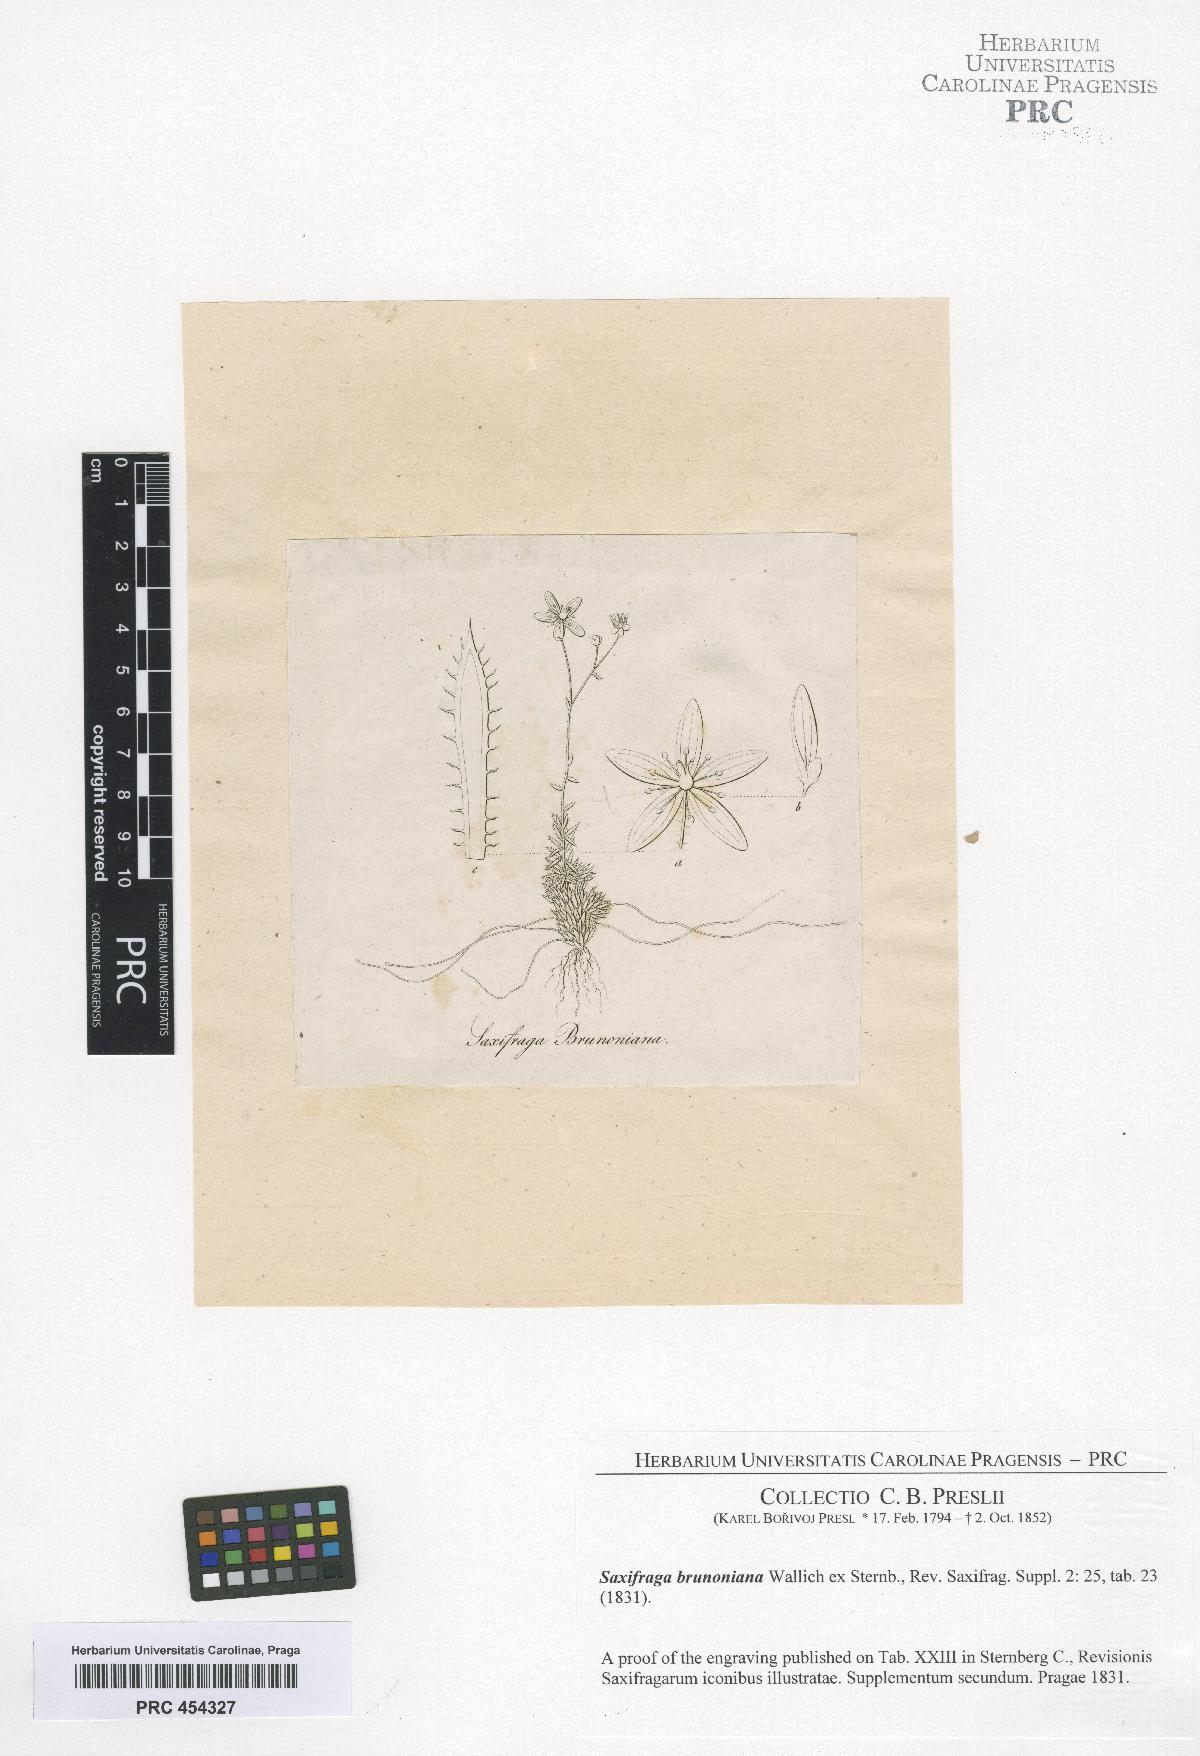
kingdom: Plantae
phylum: Tracheophyta
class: Magnoliopsida
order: Saxifragales
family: Saxifragaceae
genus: Saxifraga
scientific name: Saxifraga brunonis
